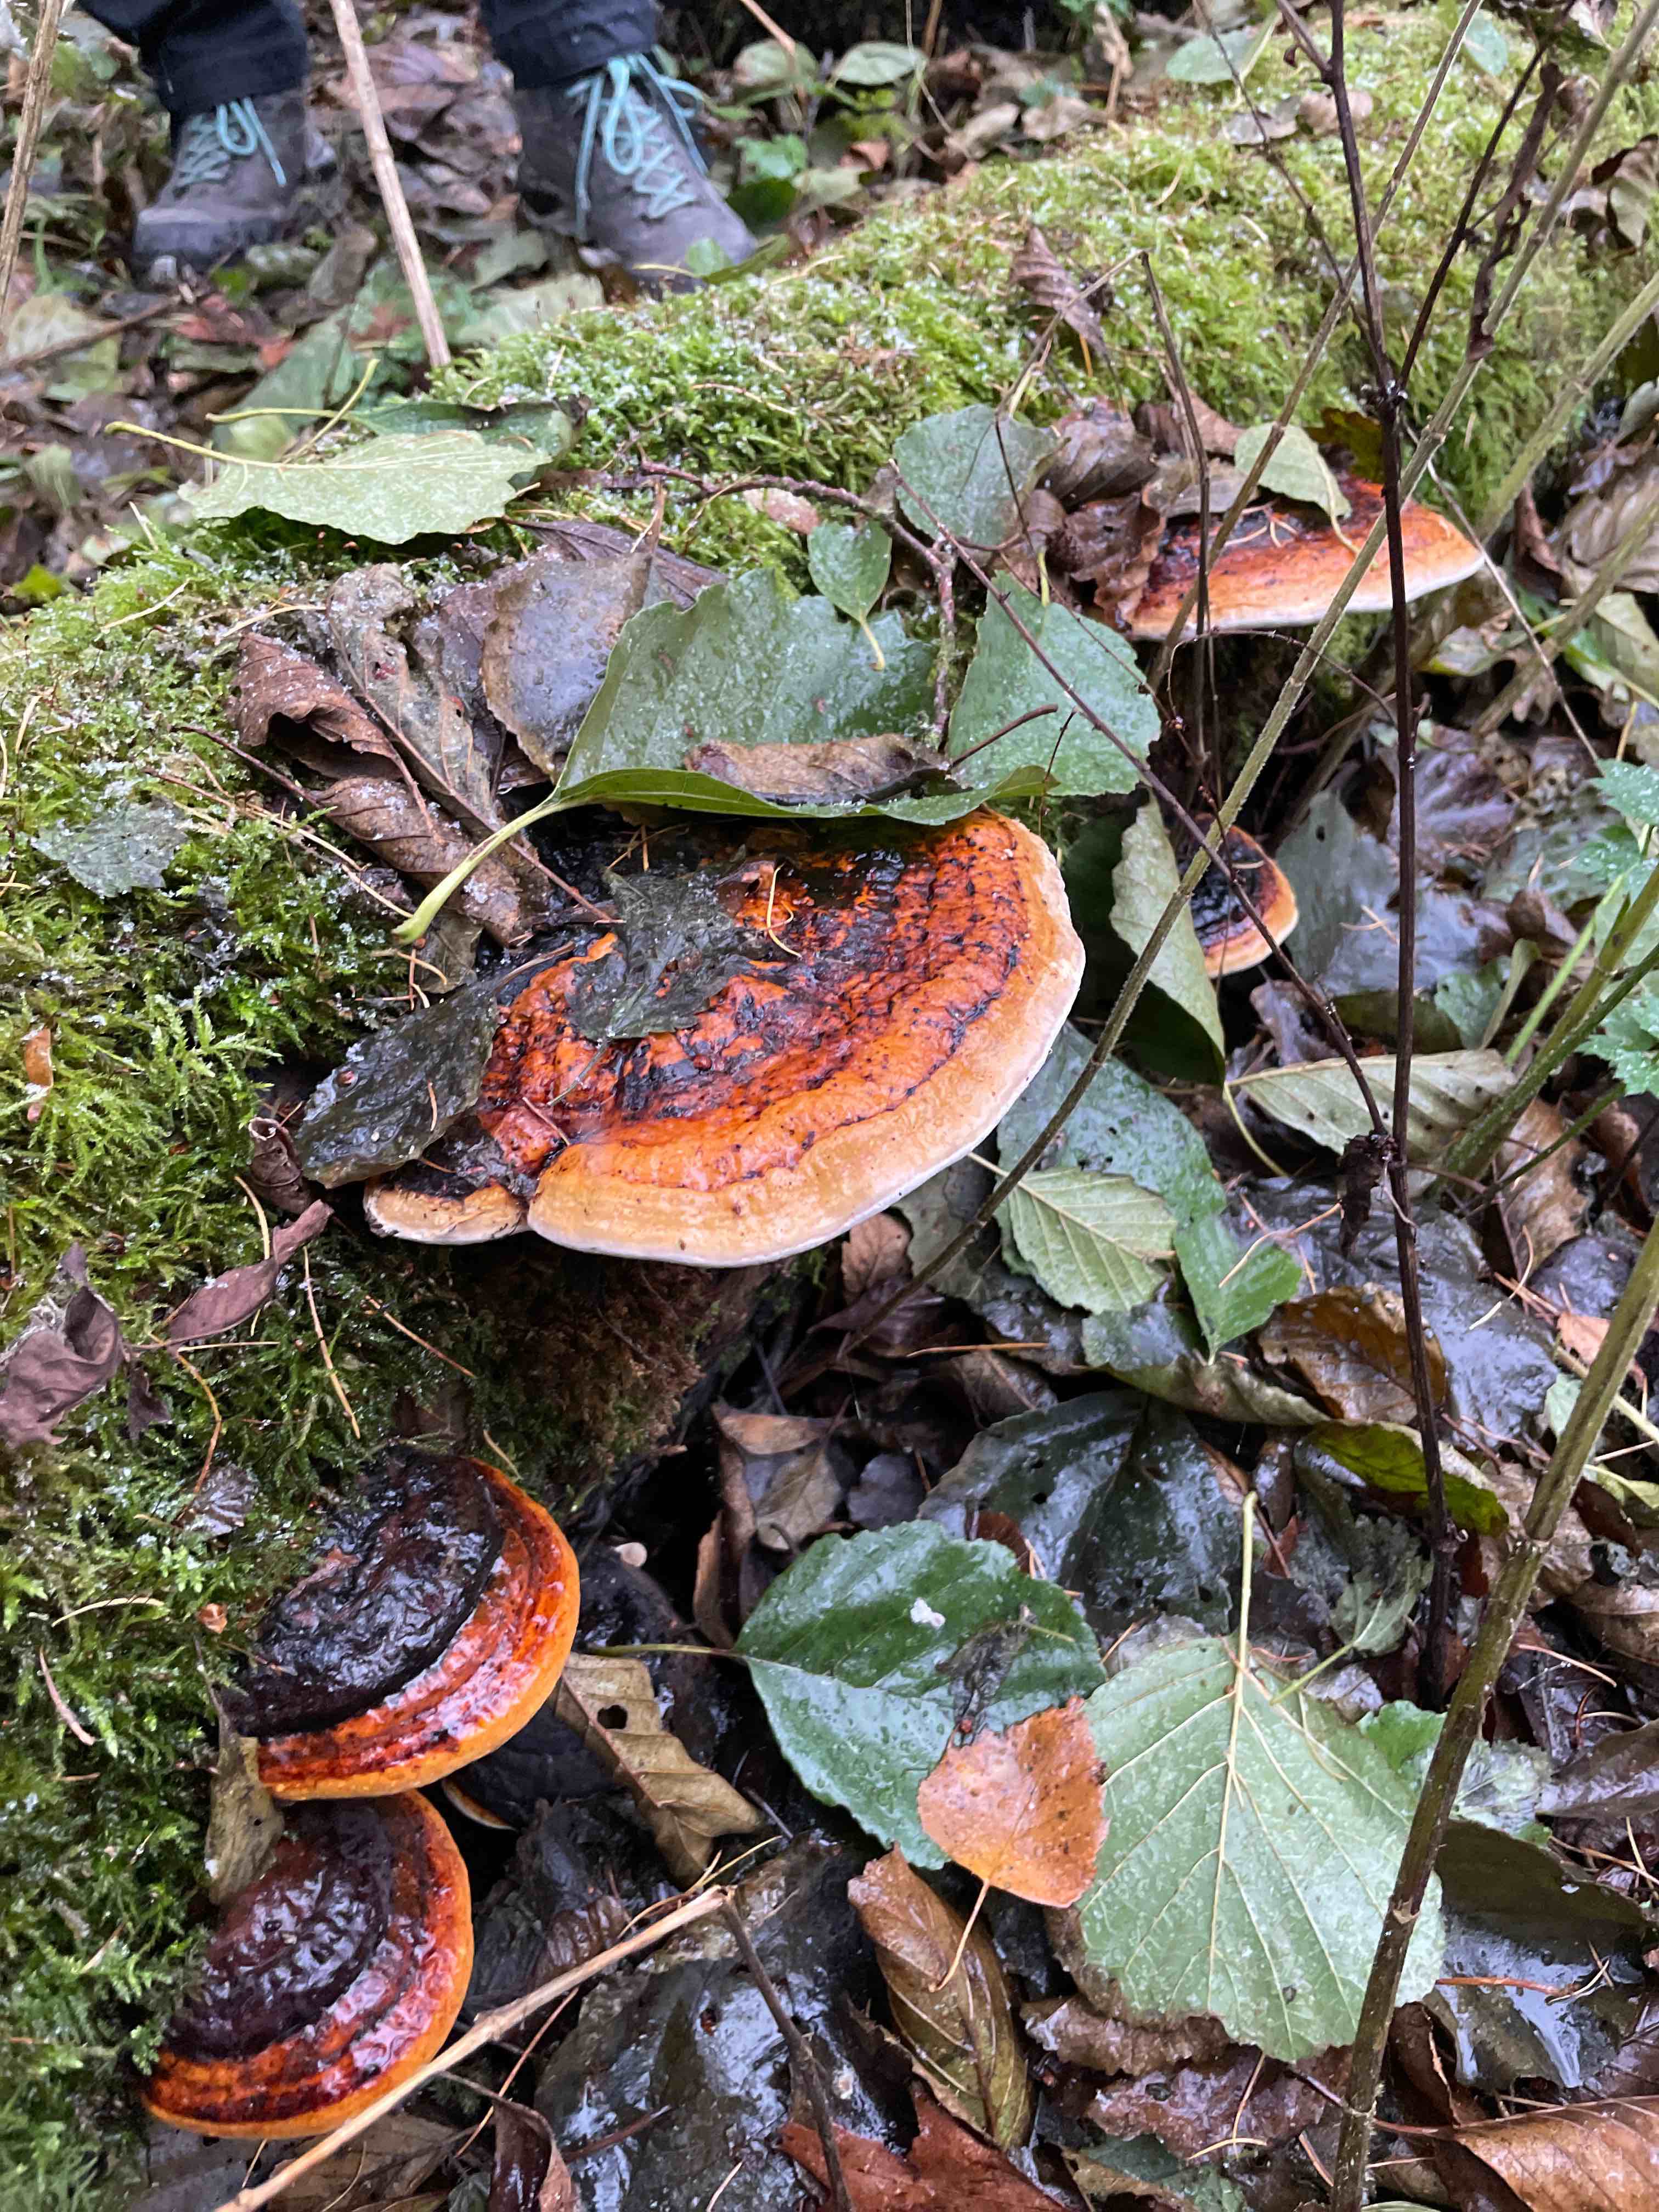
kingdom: Fungi
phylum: Basidiomycota
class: Agaricomycetes
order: Polyporales
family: Fomitopsidaceae
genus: Fomitopsis
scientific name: Fomitopsis pinicola
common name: randbæltet hovporesvamp
